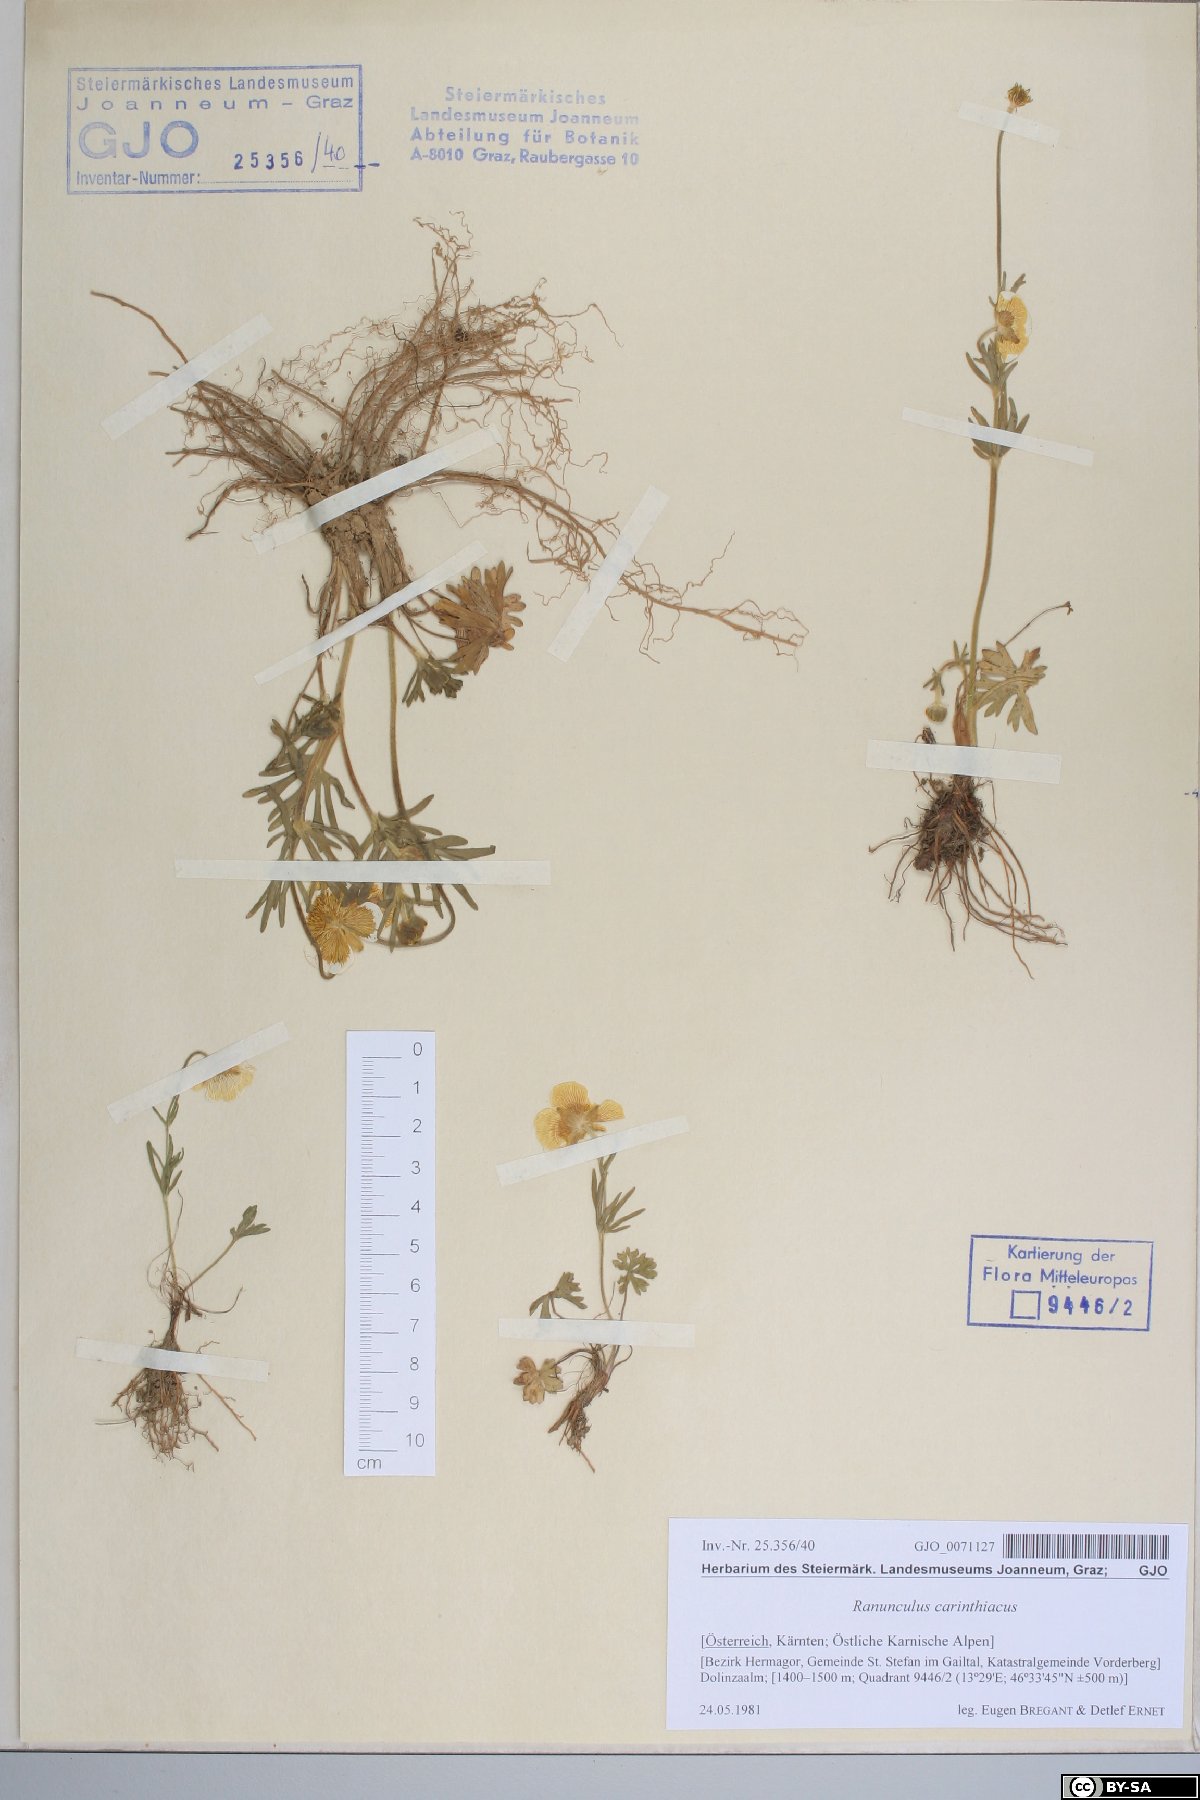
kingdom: Plantae
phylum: Tracheophyta
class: Magnoliopsida
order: Ranunculales
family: Ranunculaceae
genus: Ranunculus
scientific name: Ranunculus carinthiacus
